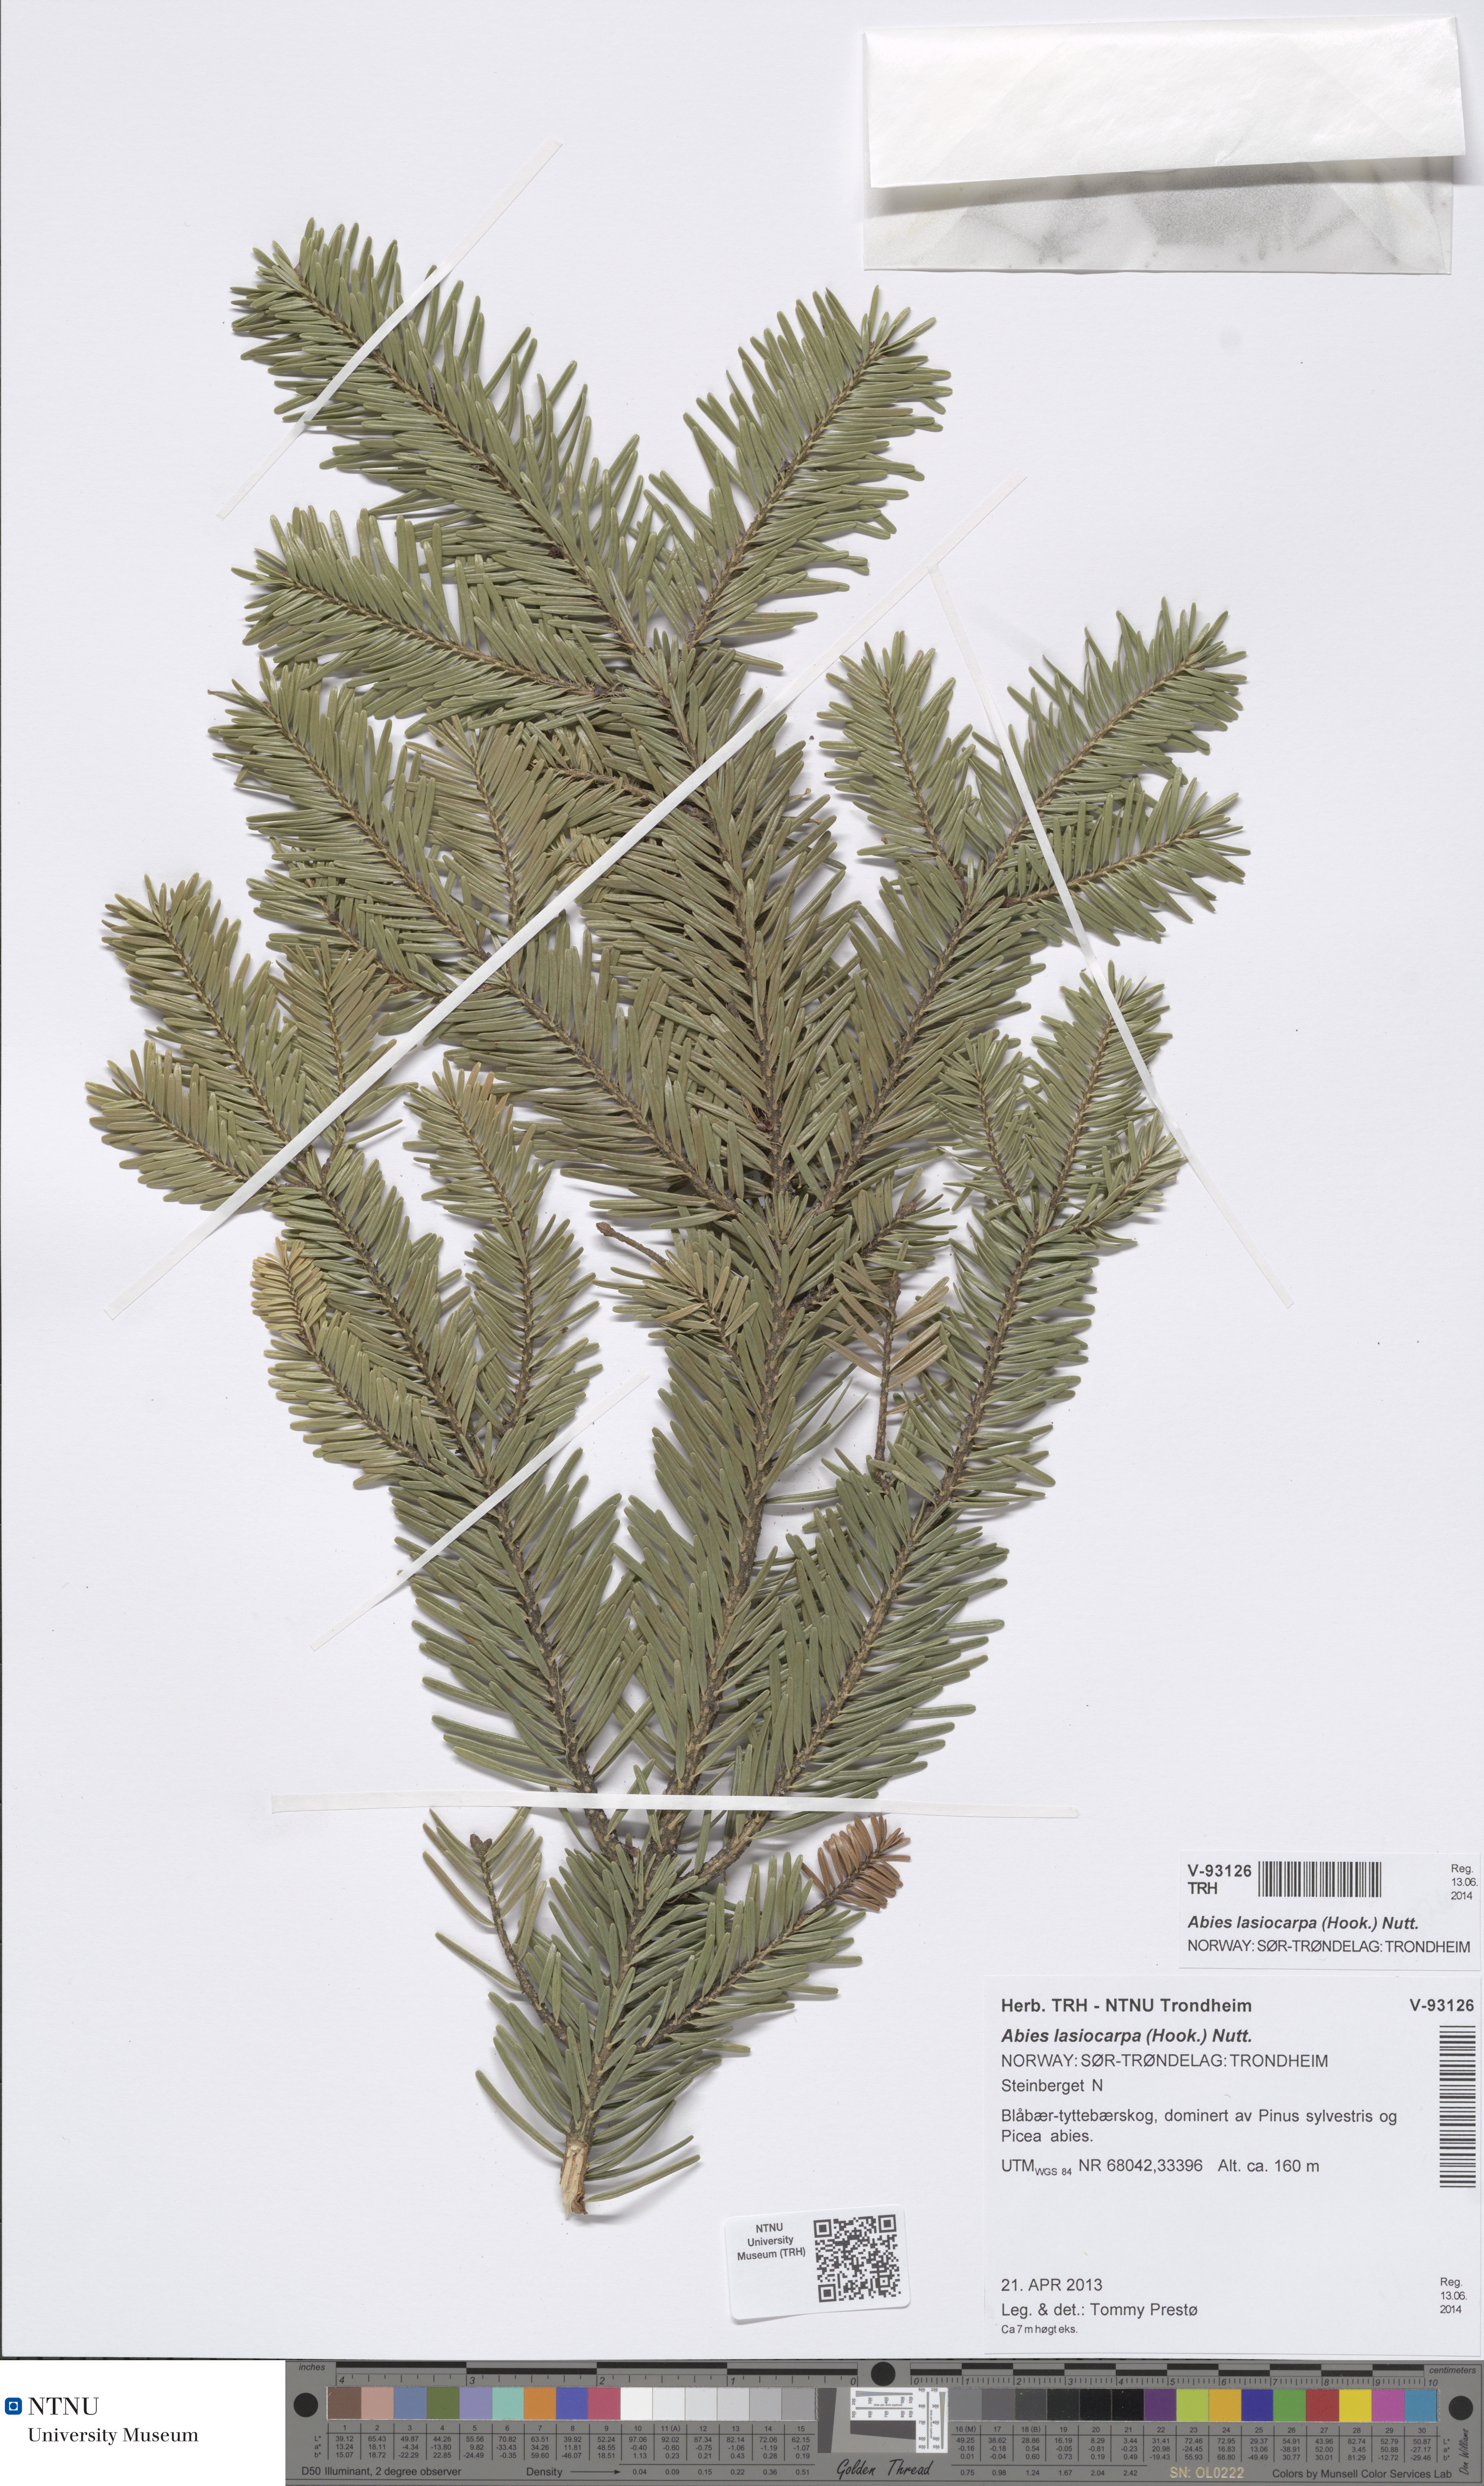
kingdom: Plantae
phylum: Tracheophyta
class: Pinopsida
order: Pinales
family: Pinaceae
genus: Abies
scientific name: Abies lasiocarpa
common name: Subalpine fir
